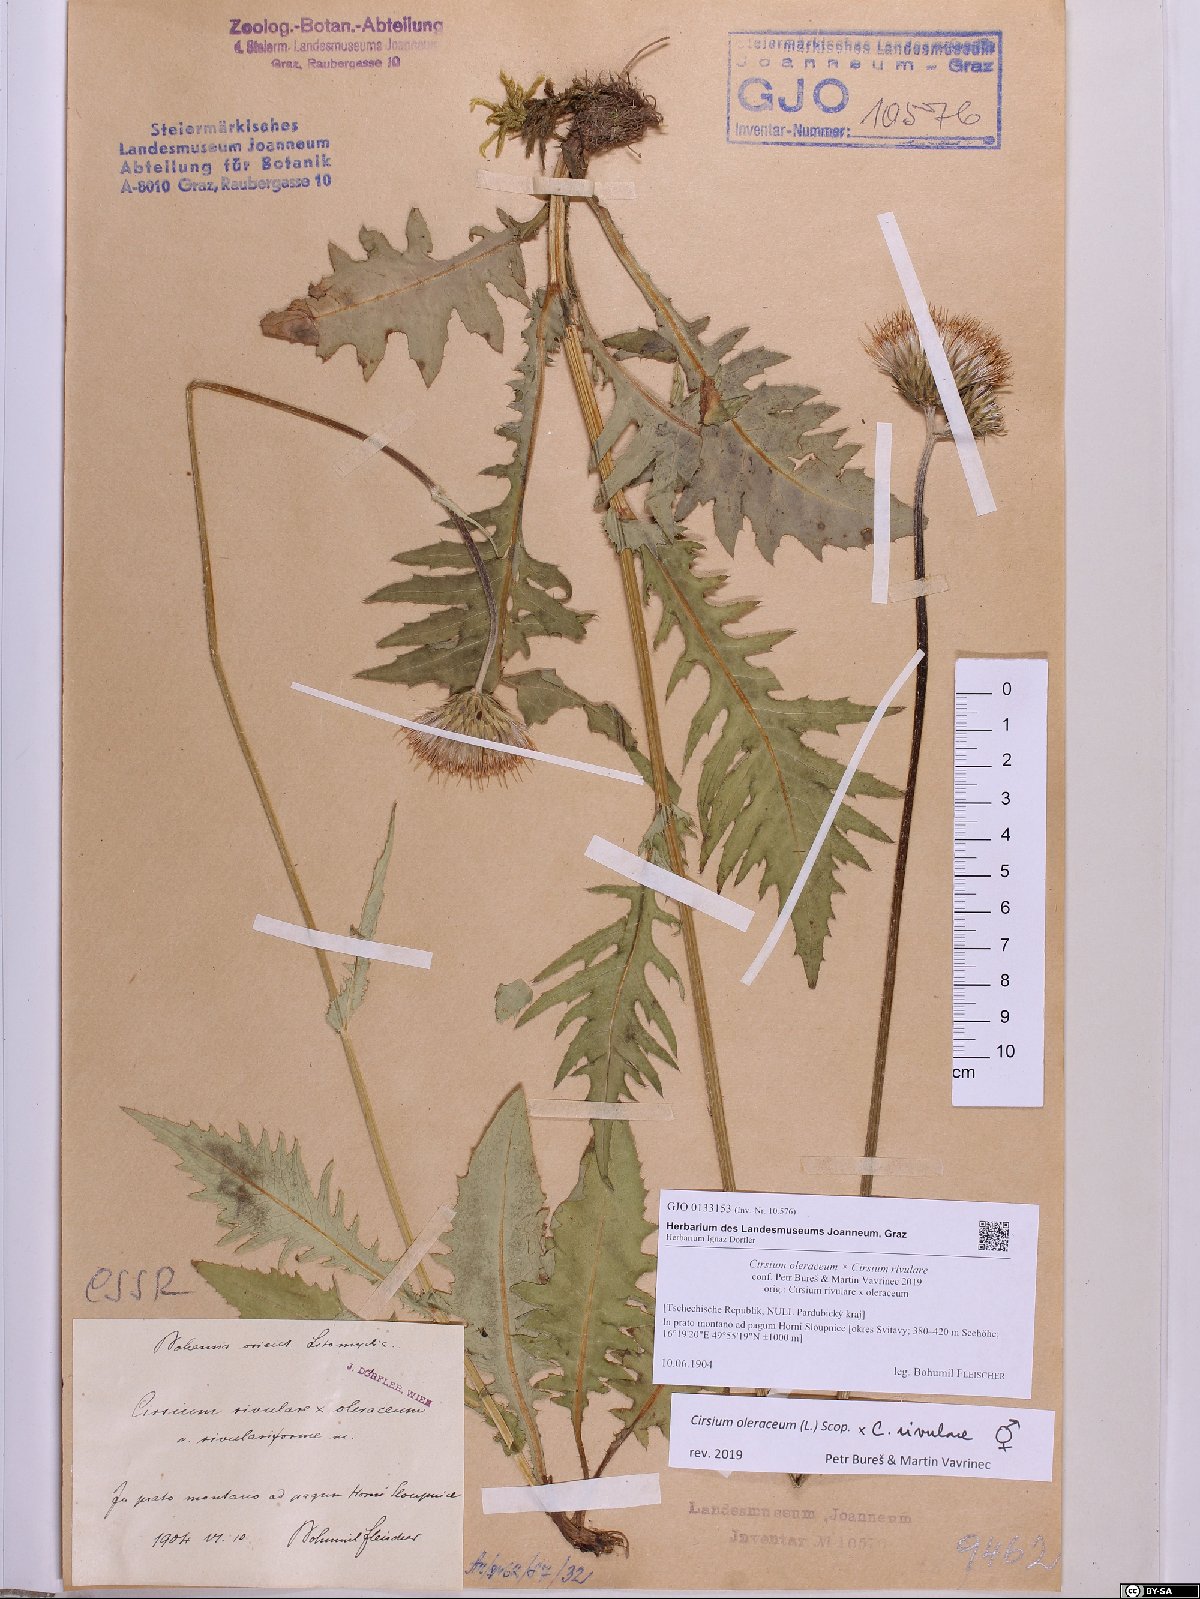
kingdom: Plantae
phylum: Tracheophyta
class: Magnoliopsida
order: Asterales
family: Asteraceae
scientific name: Asteraceae
